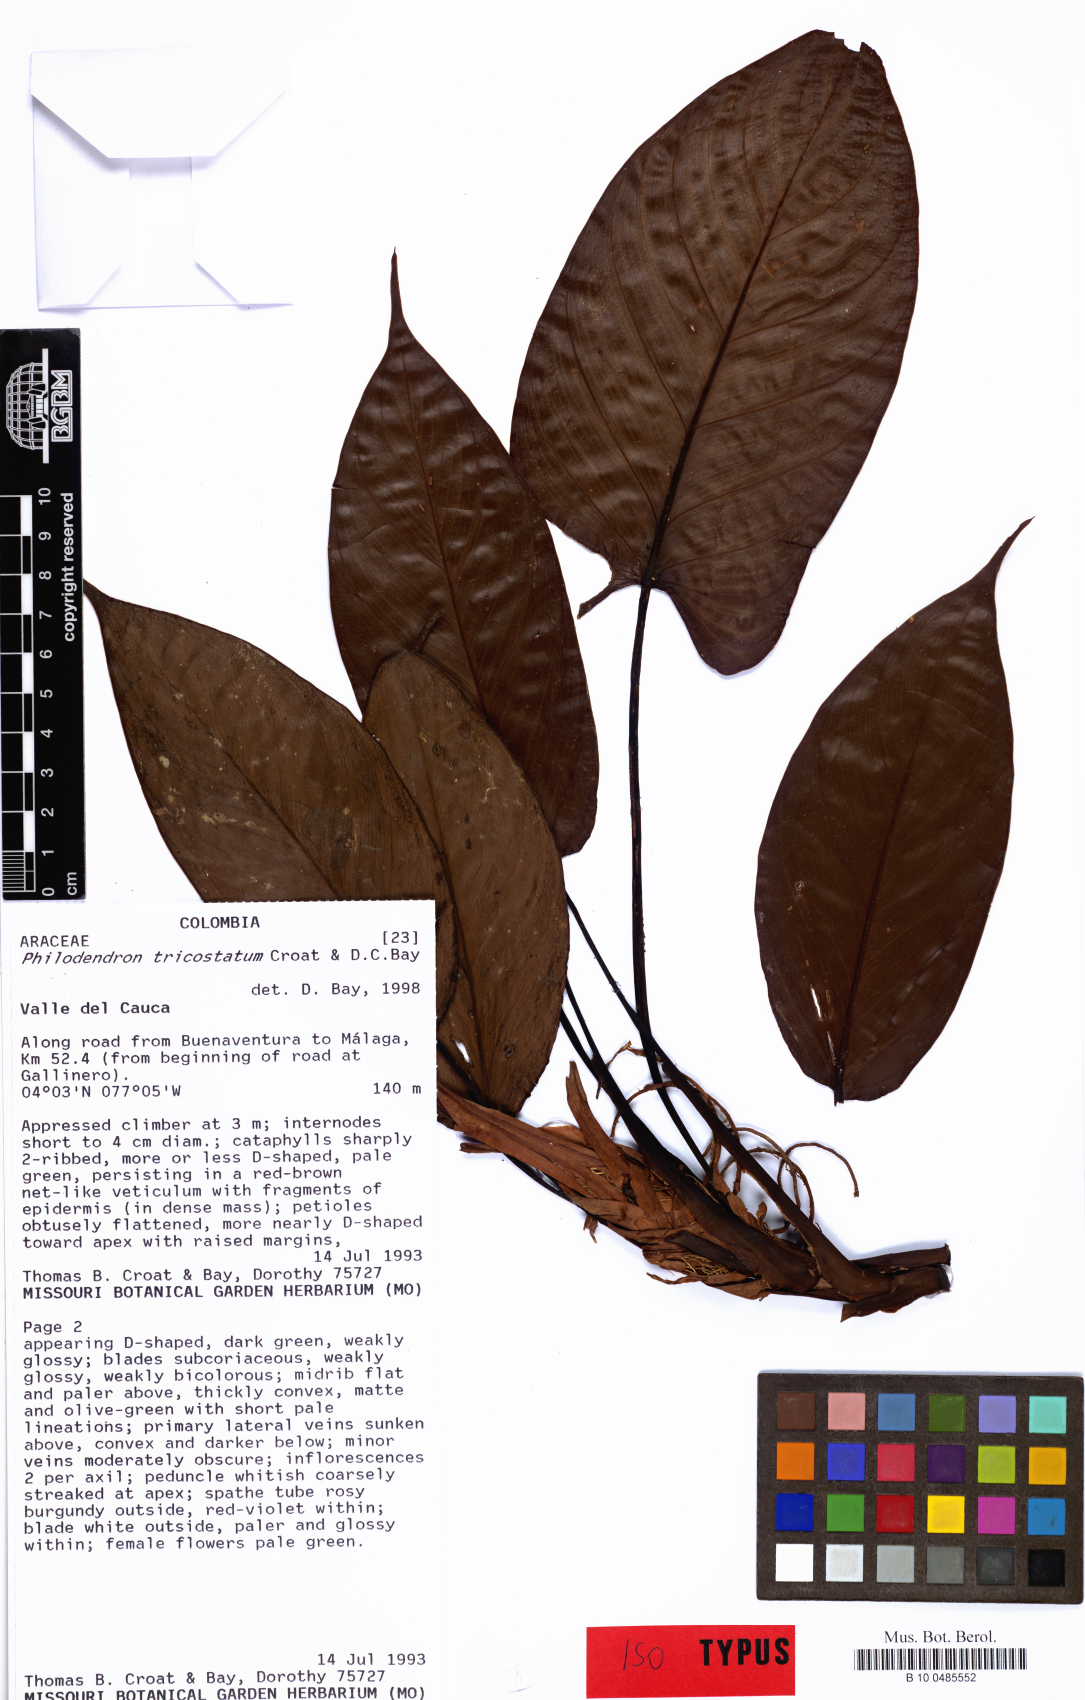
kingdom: Plantae
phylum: Tracheophyta
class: Liliopsida
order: Alismatales
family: Araceae
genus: Philodendron
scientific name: Philodendron tricostatum
